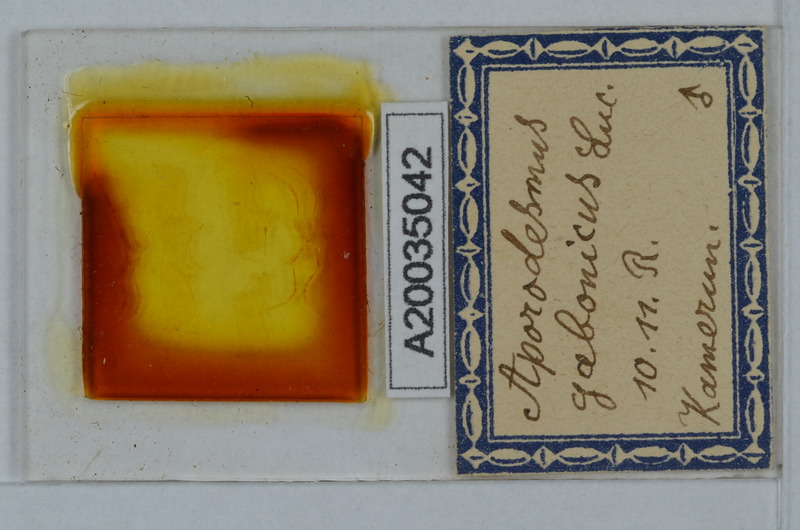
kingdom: Animalia
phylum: Arthropoda
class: Diplopoda
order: Polydesmida
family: Pyrgodesmidae
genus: Aporodesmus
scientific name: Aporodesmus gabonicus
